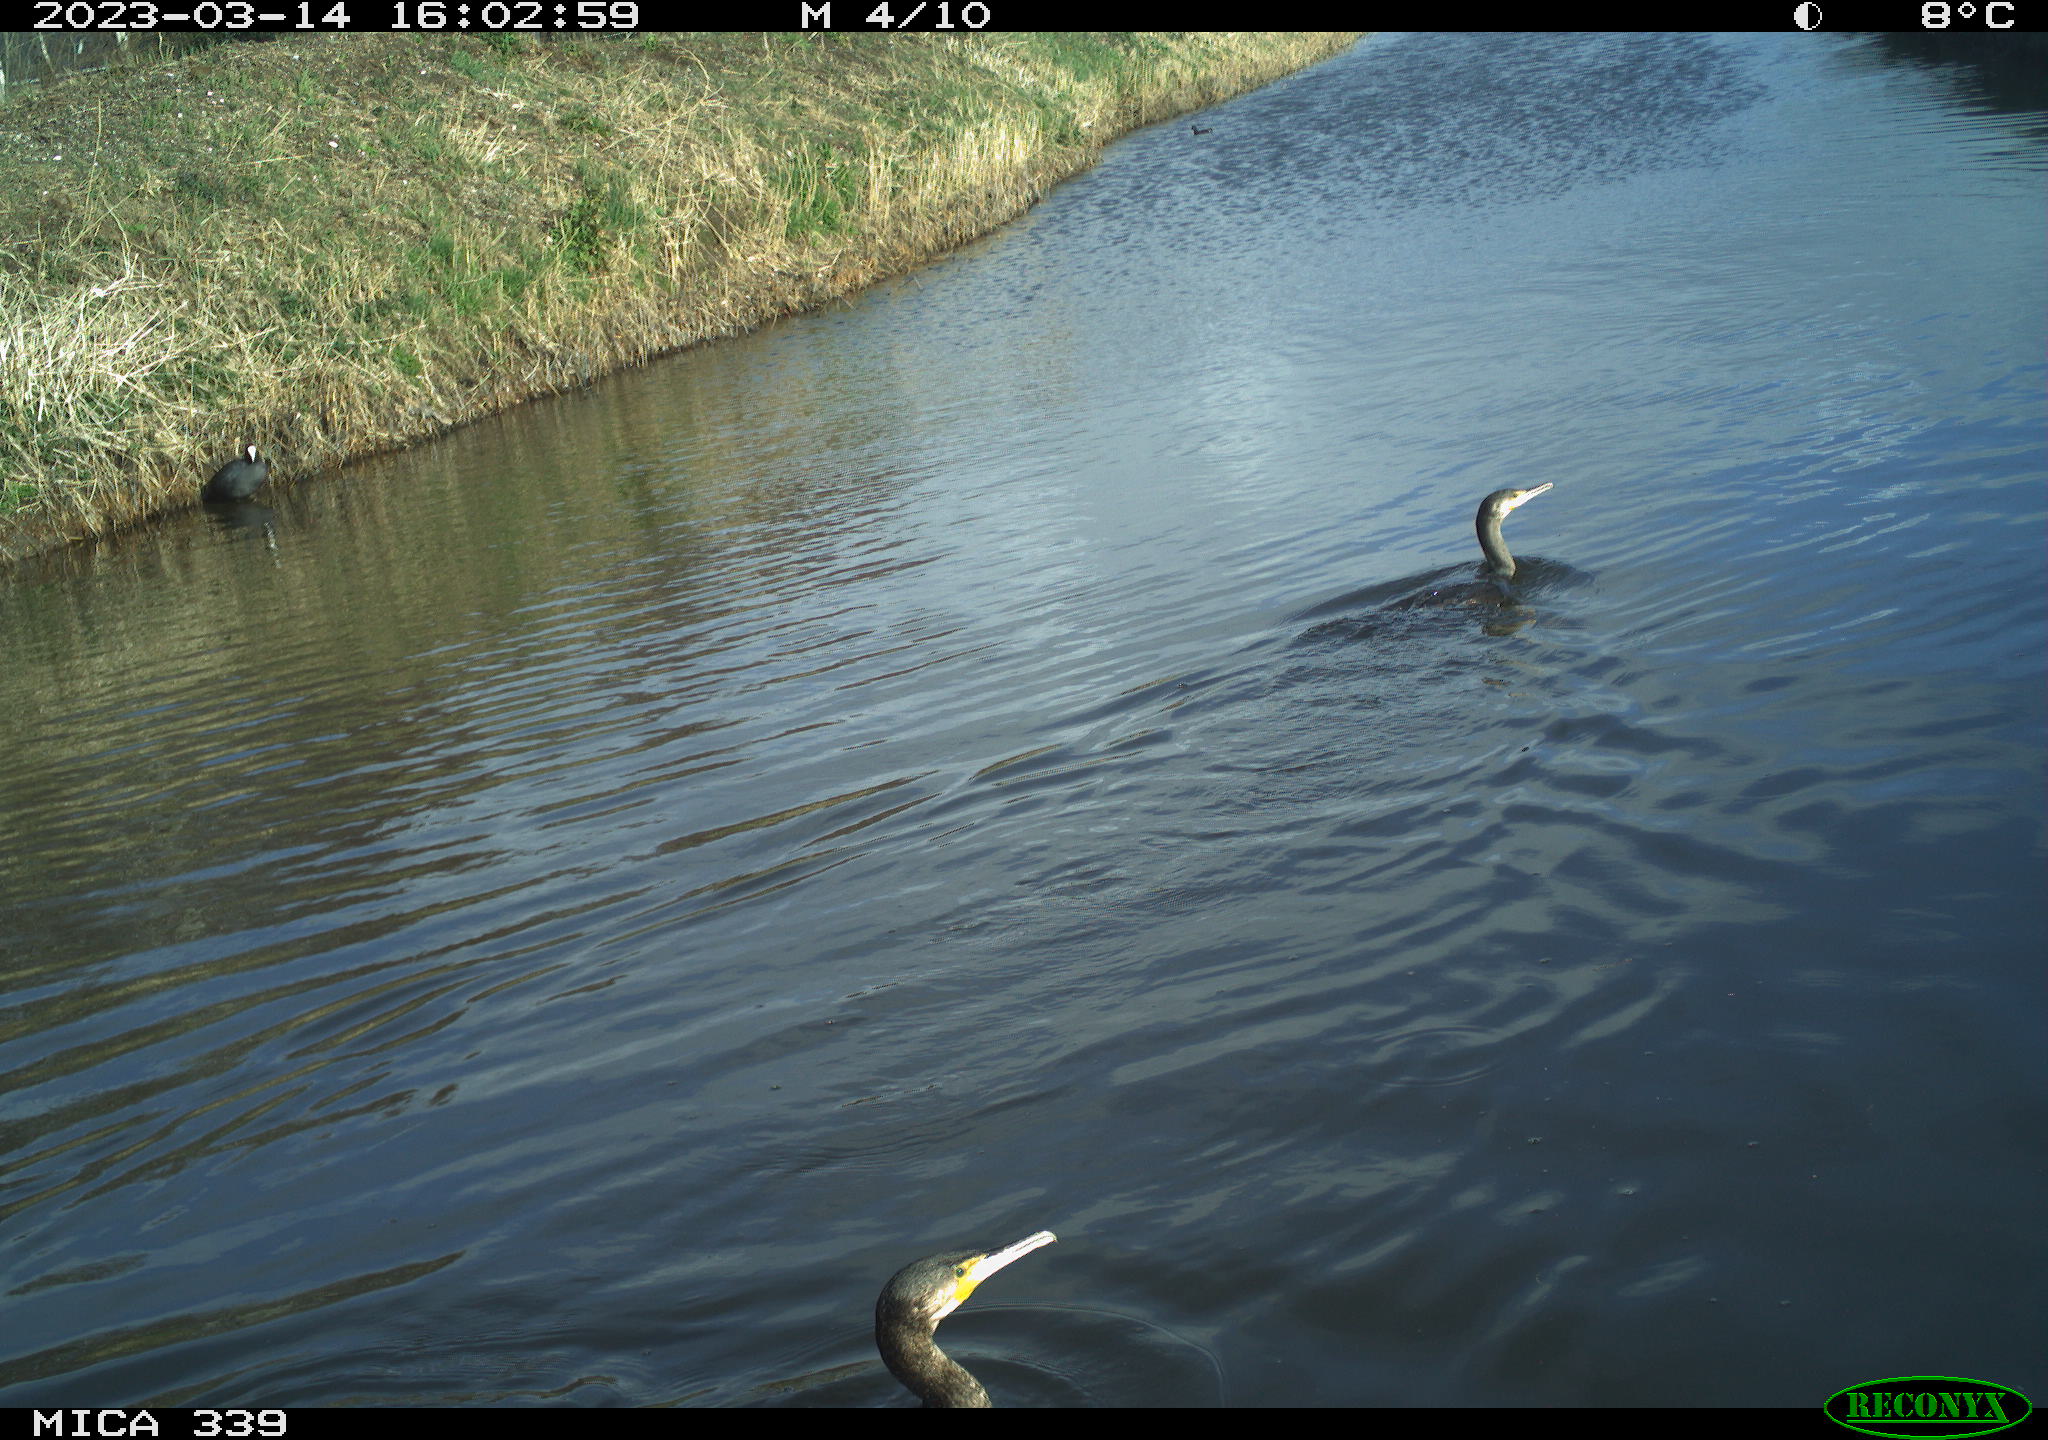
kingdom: Animalia
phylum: Chordata
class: Aves
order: Suliformes
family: Phalacrocoracidae
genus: Phalacrocorax
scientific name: Phalacrocorax carbo
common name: Great cormorant
